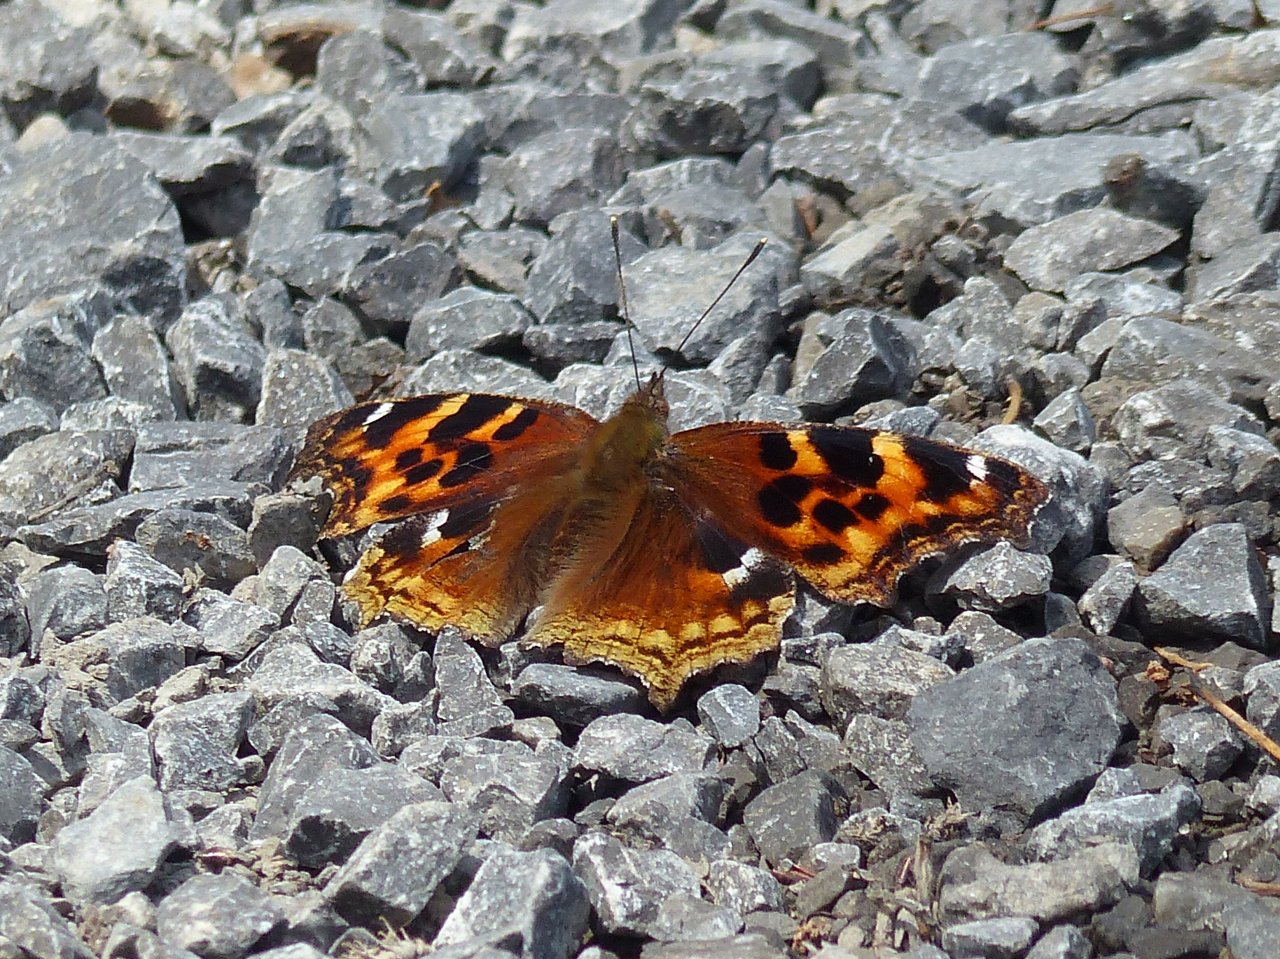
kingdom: Animalia
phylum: Arthropoda
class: Insecta
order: Lepidoptera
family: Nymphalidae
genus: Polygonia
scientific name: Polygonia vaualbum
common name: Compton Tortoiseshell
